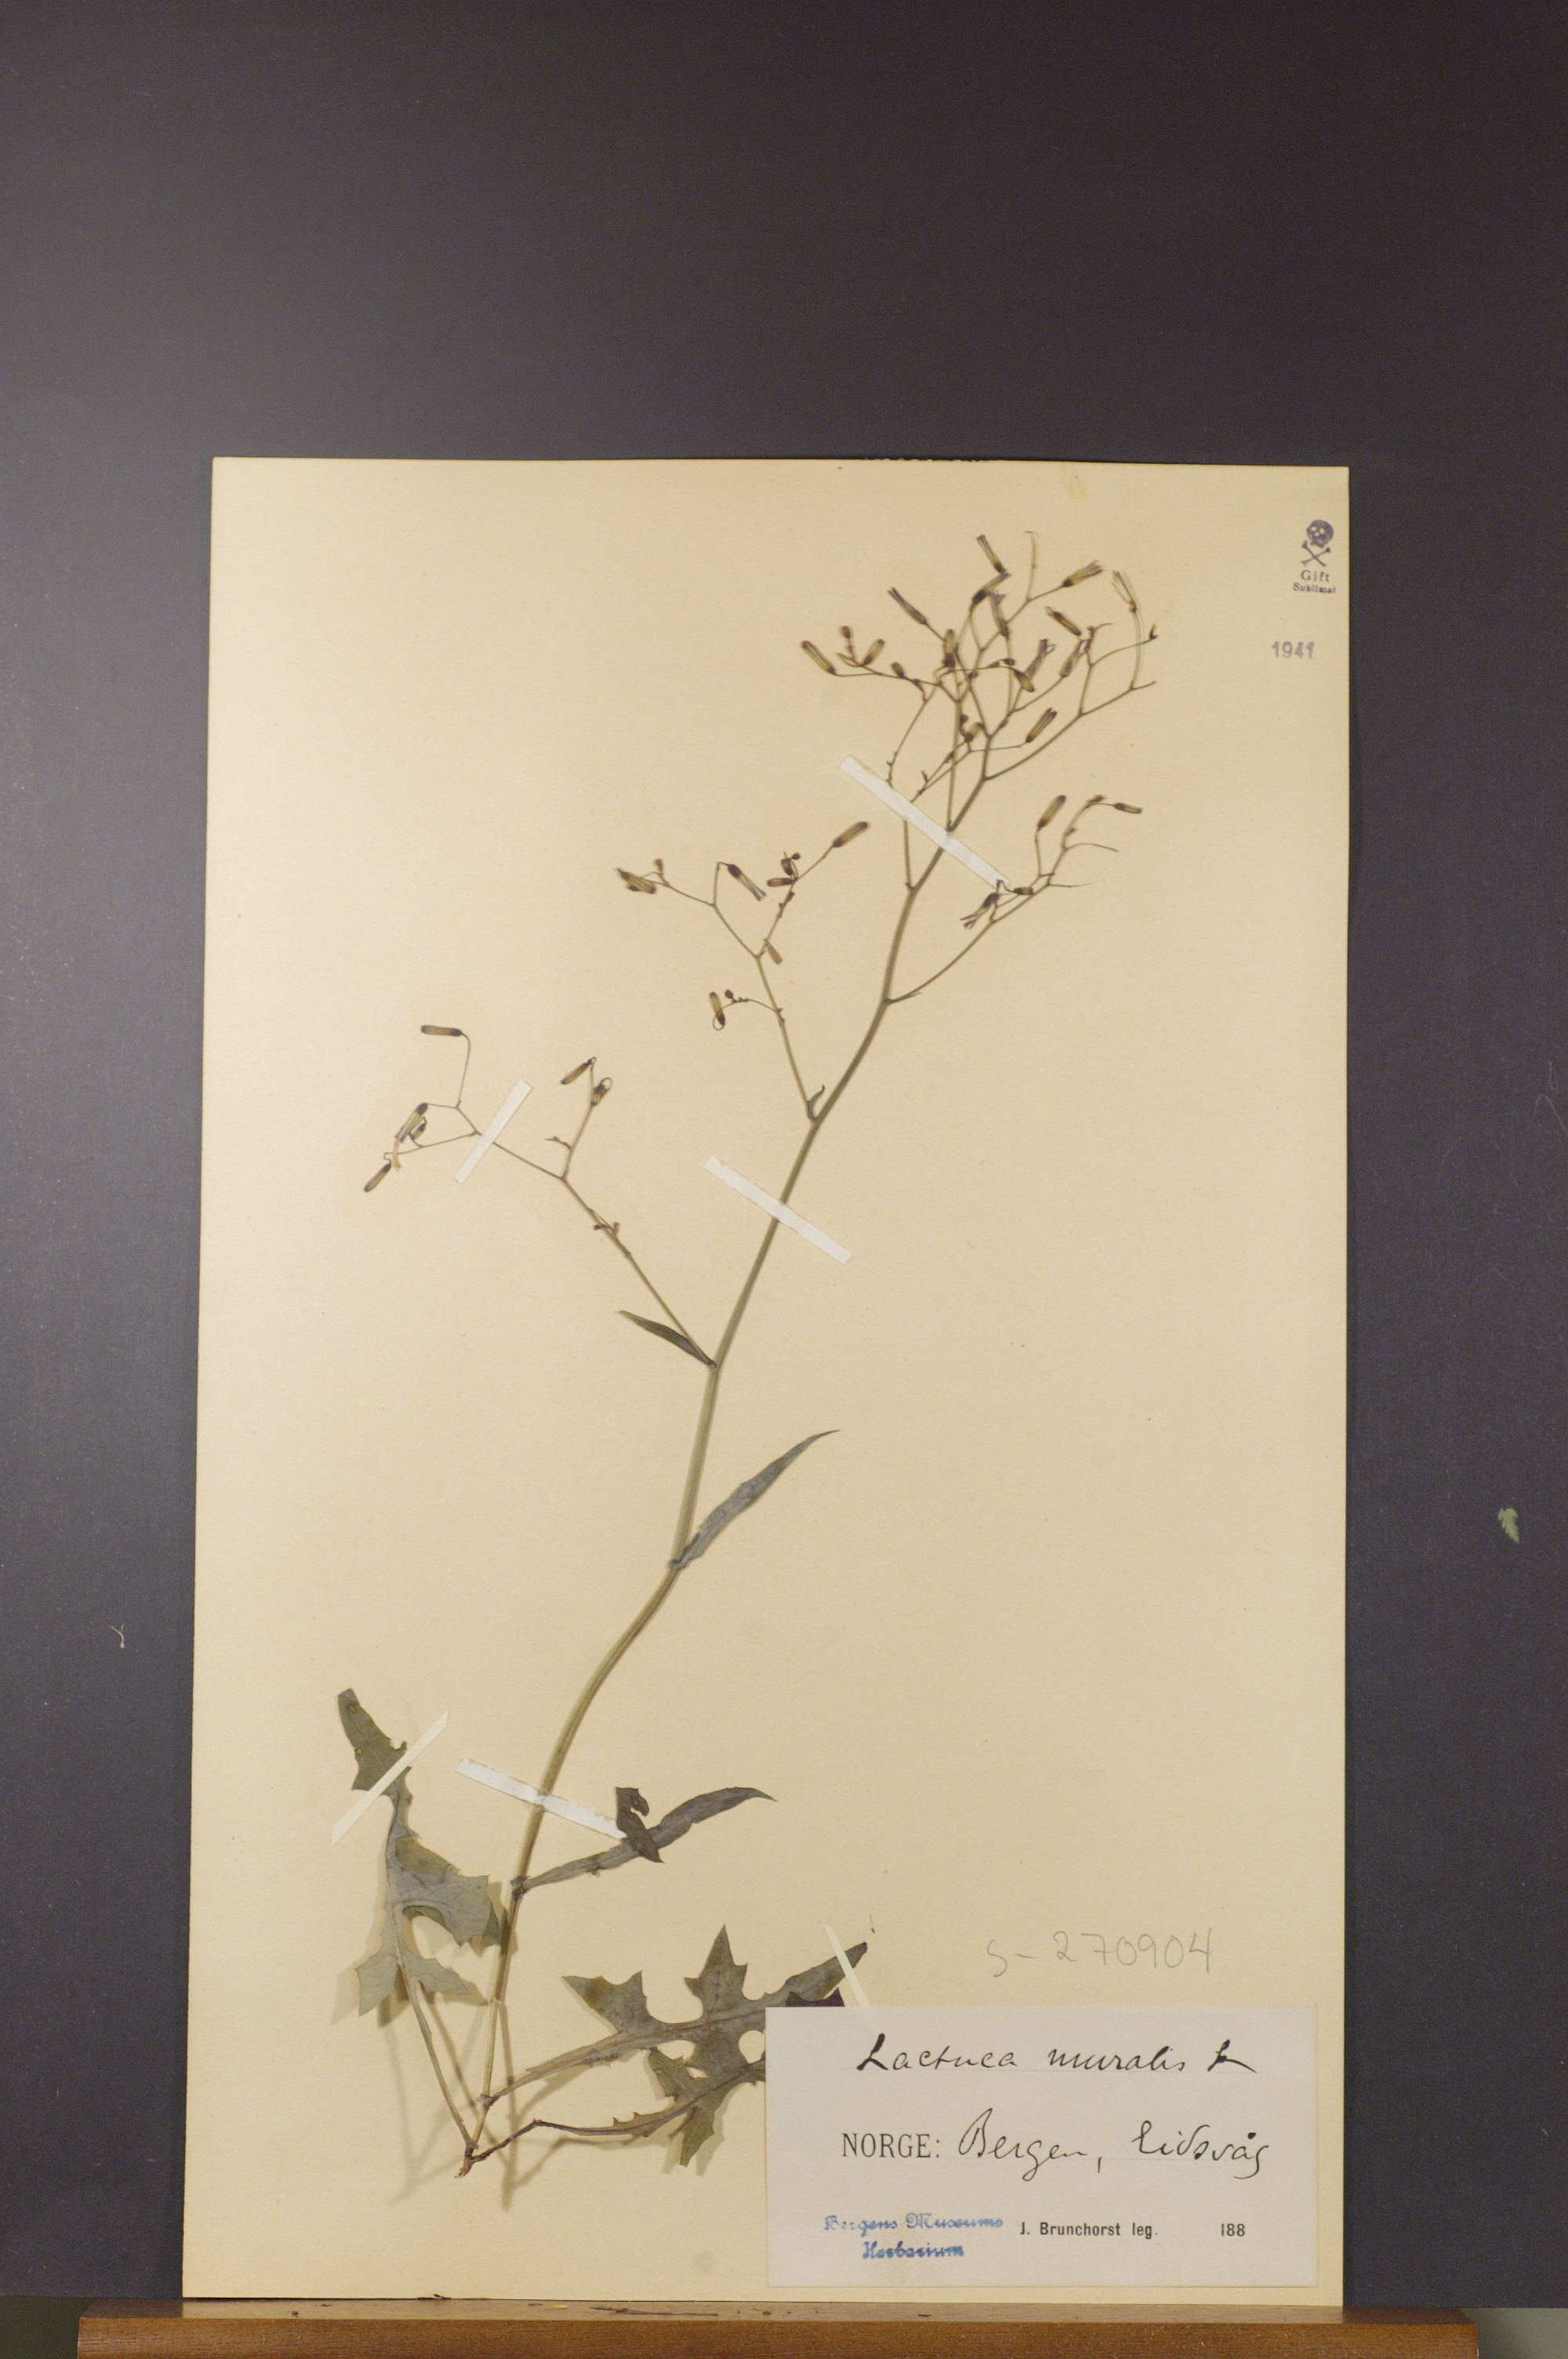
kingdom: Plantae
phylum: Tracheophyta
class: Magnoliopsida
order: Asterales
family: Asteraceae
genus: Mycelis
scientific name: Mycelis muralis
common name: Wall lettuce
